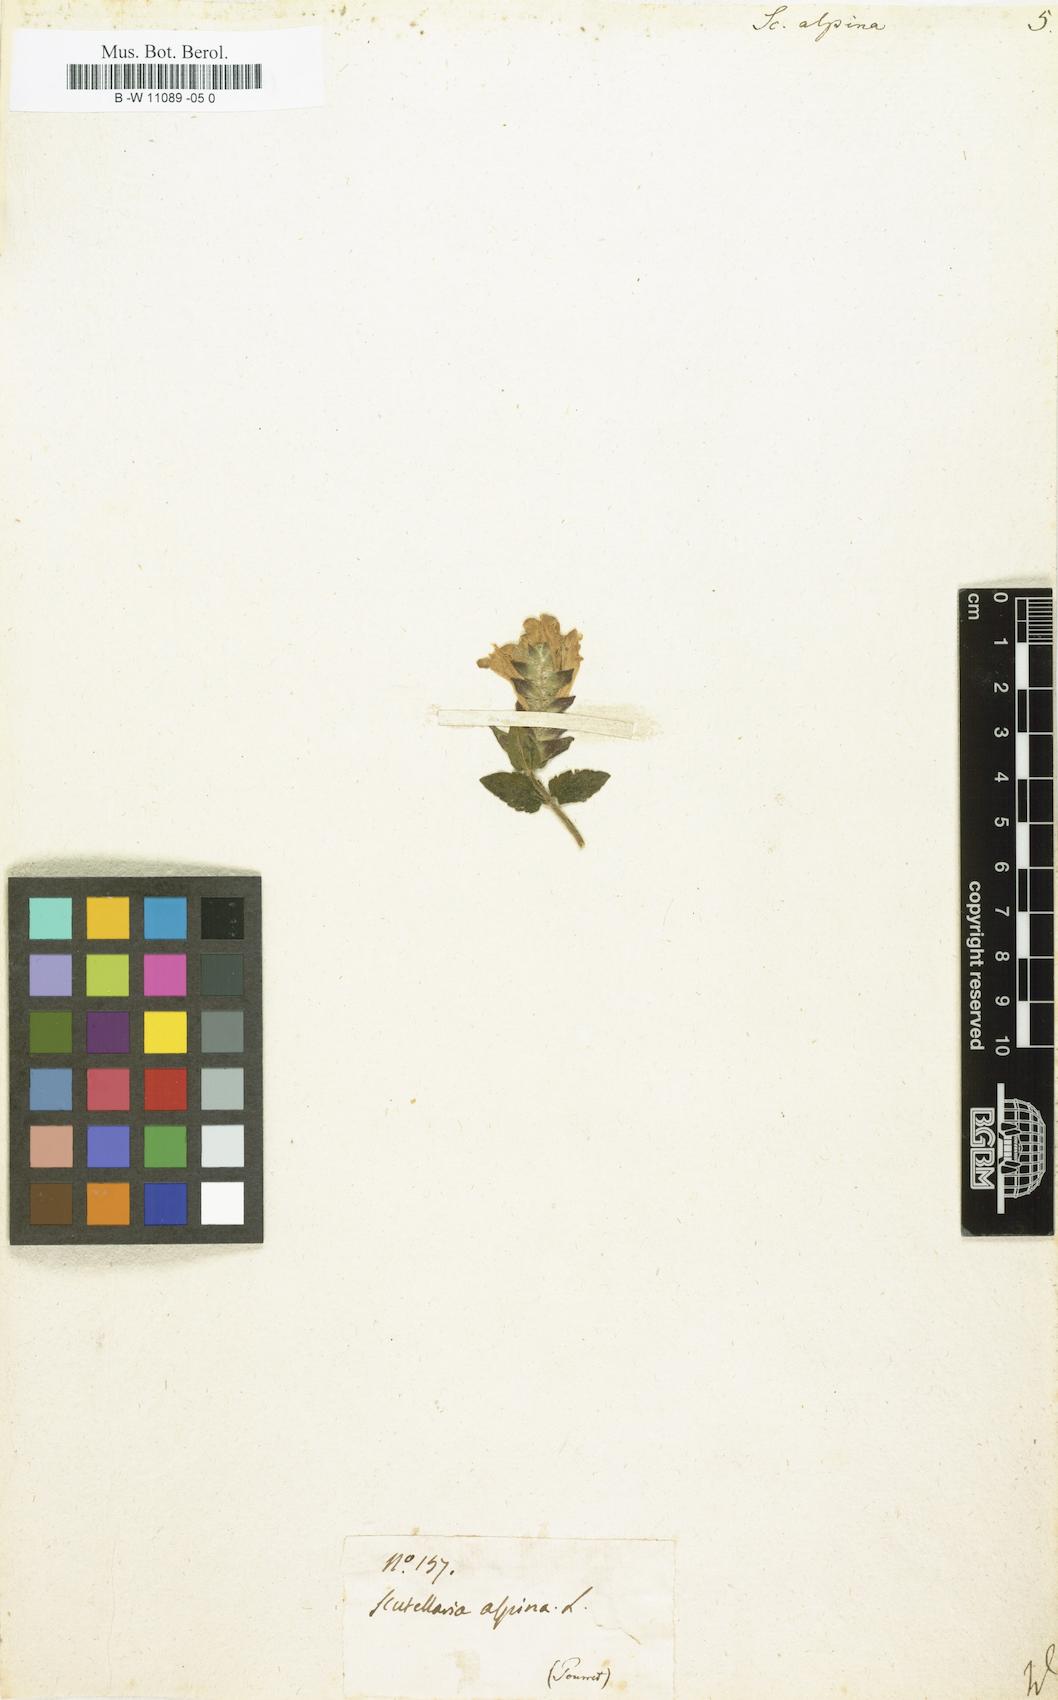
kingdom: Plantae
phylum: Tracheophyta
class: Magnoliopsida
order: Lamiales
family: Lamiaceae
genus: Scutellaria
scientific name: Scutellaria alpina
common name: Alpine scullcap
